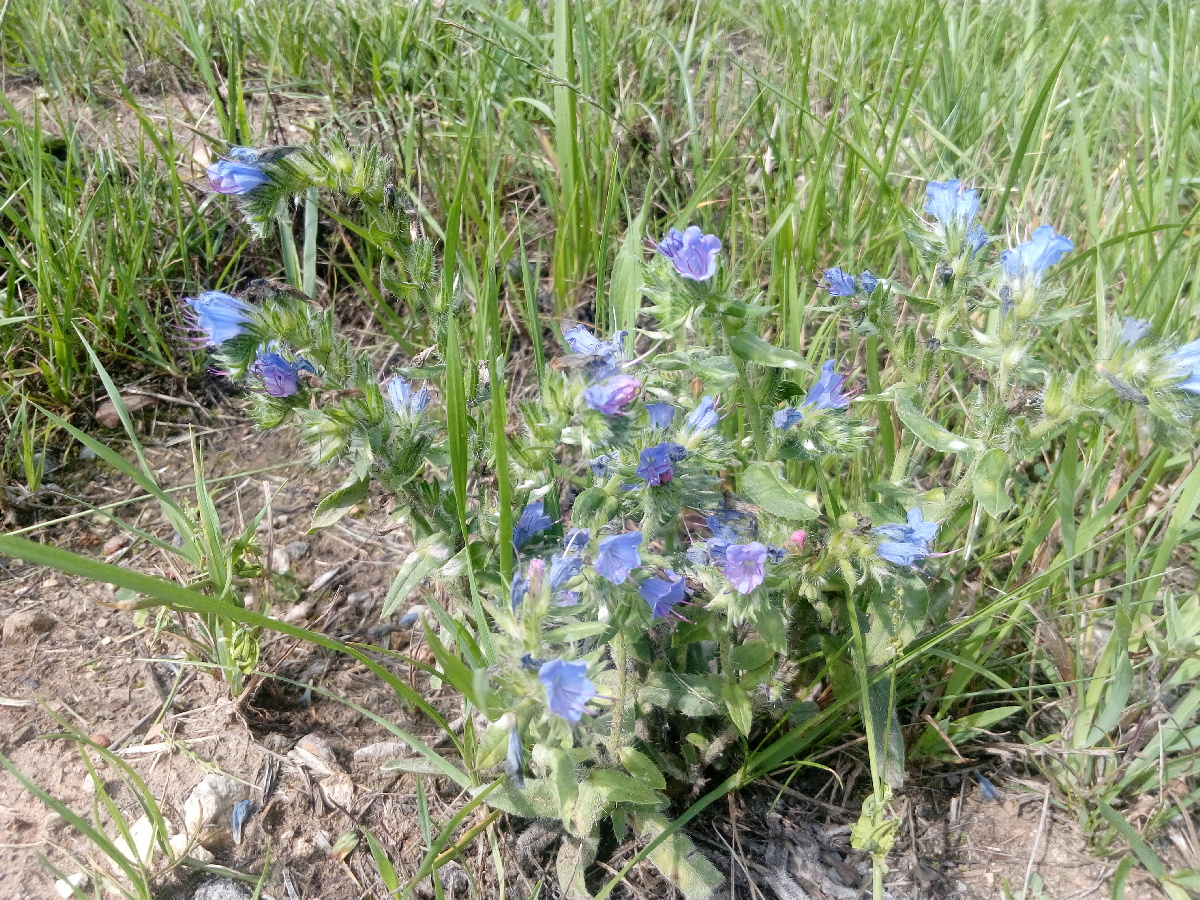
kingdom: Plantae
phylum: Tracheophyta
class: Magnoliopsida
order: Boraginales
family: Boraginaceae
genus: Echium
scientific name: Echium vulgare
